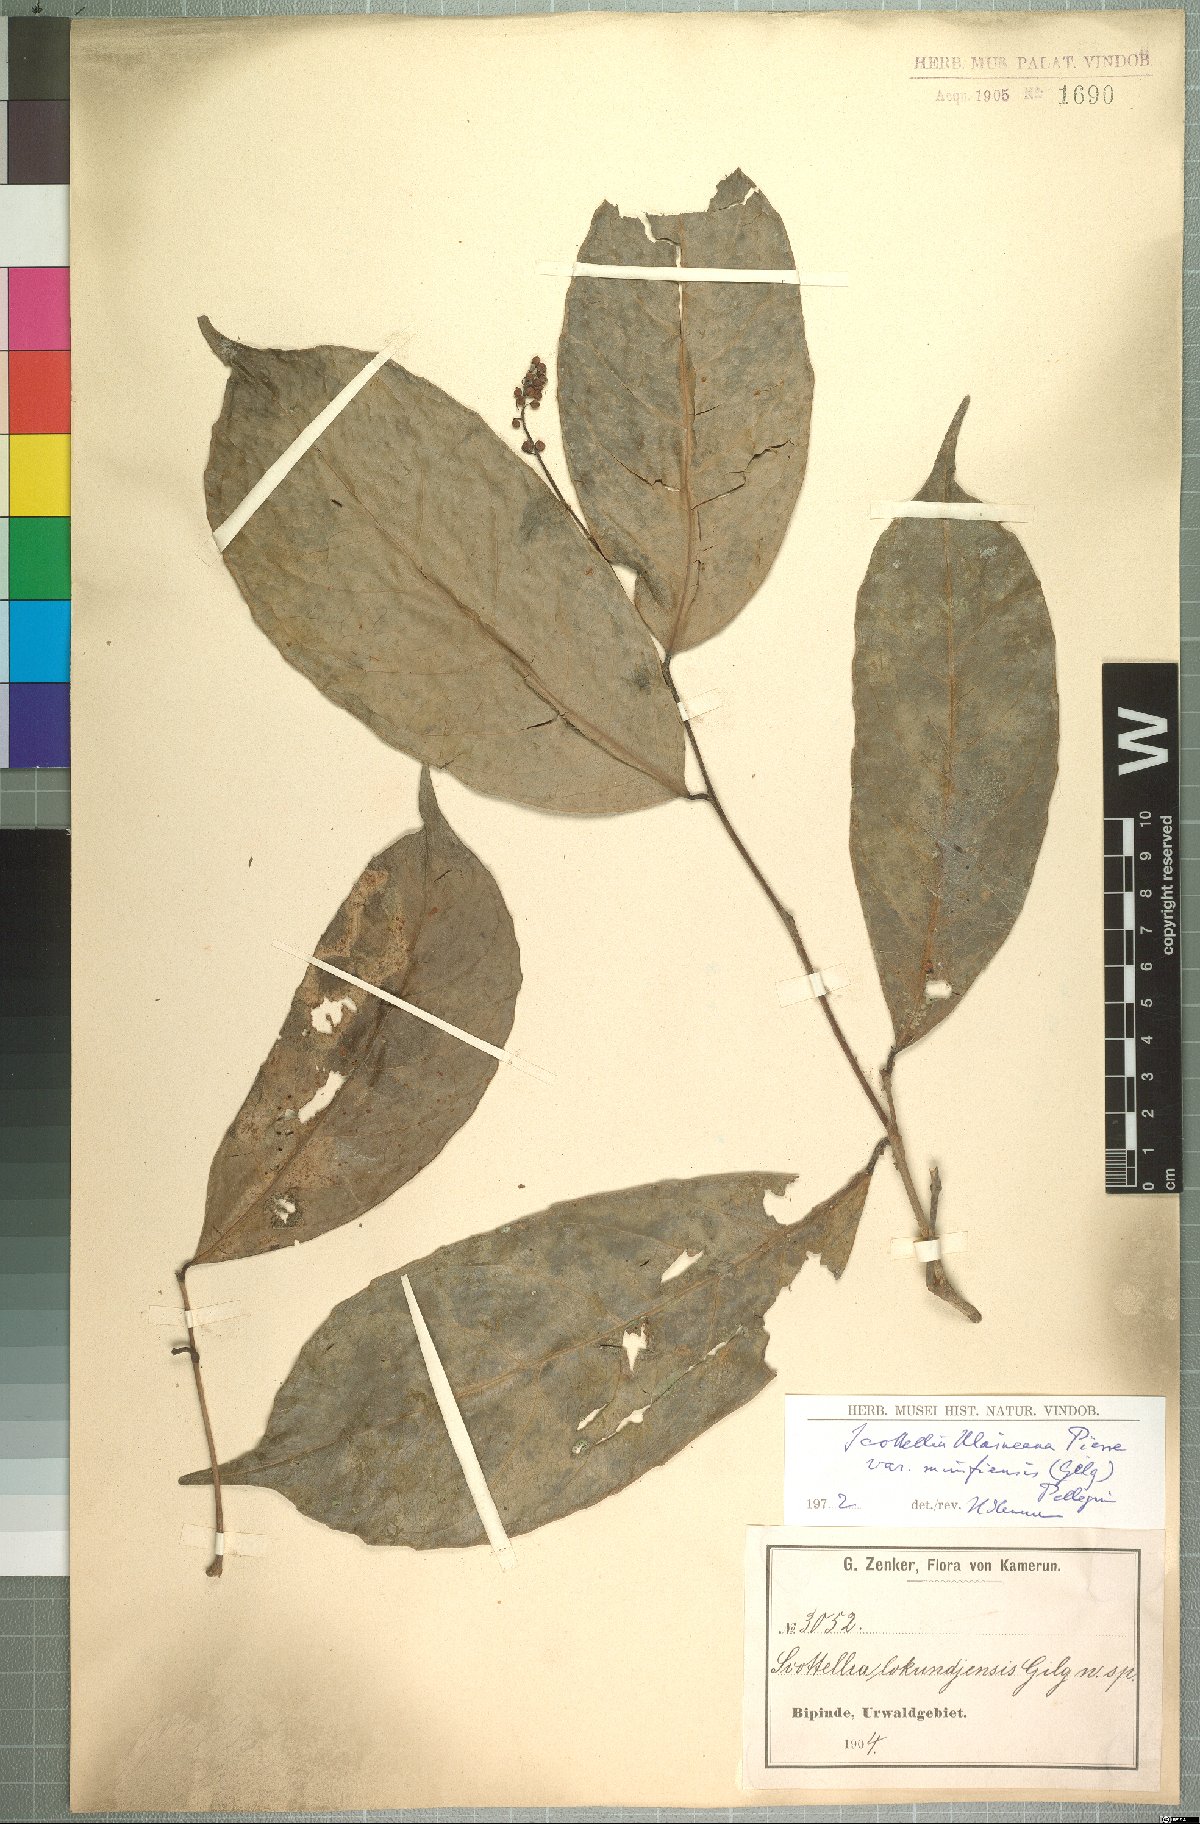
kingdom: Plantae
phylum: Tracheophyta
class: Magnoliopsida
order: Malpighiales
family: Achariaceae
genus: Scottellia
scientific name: Scottellia klaineana
